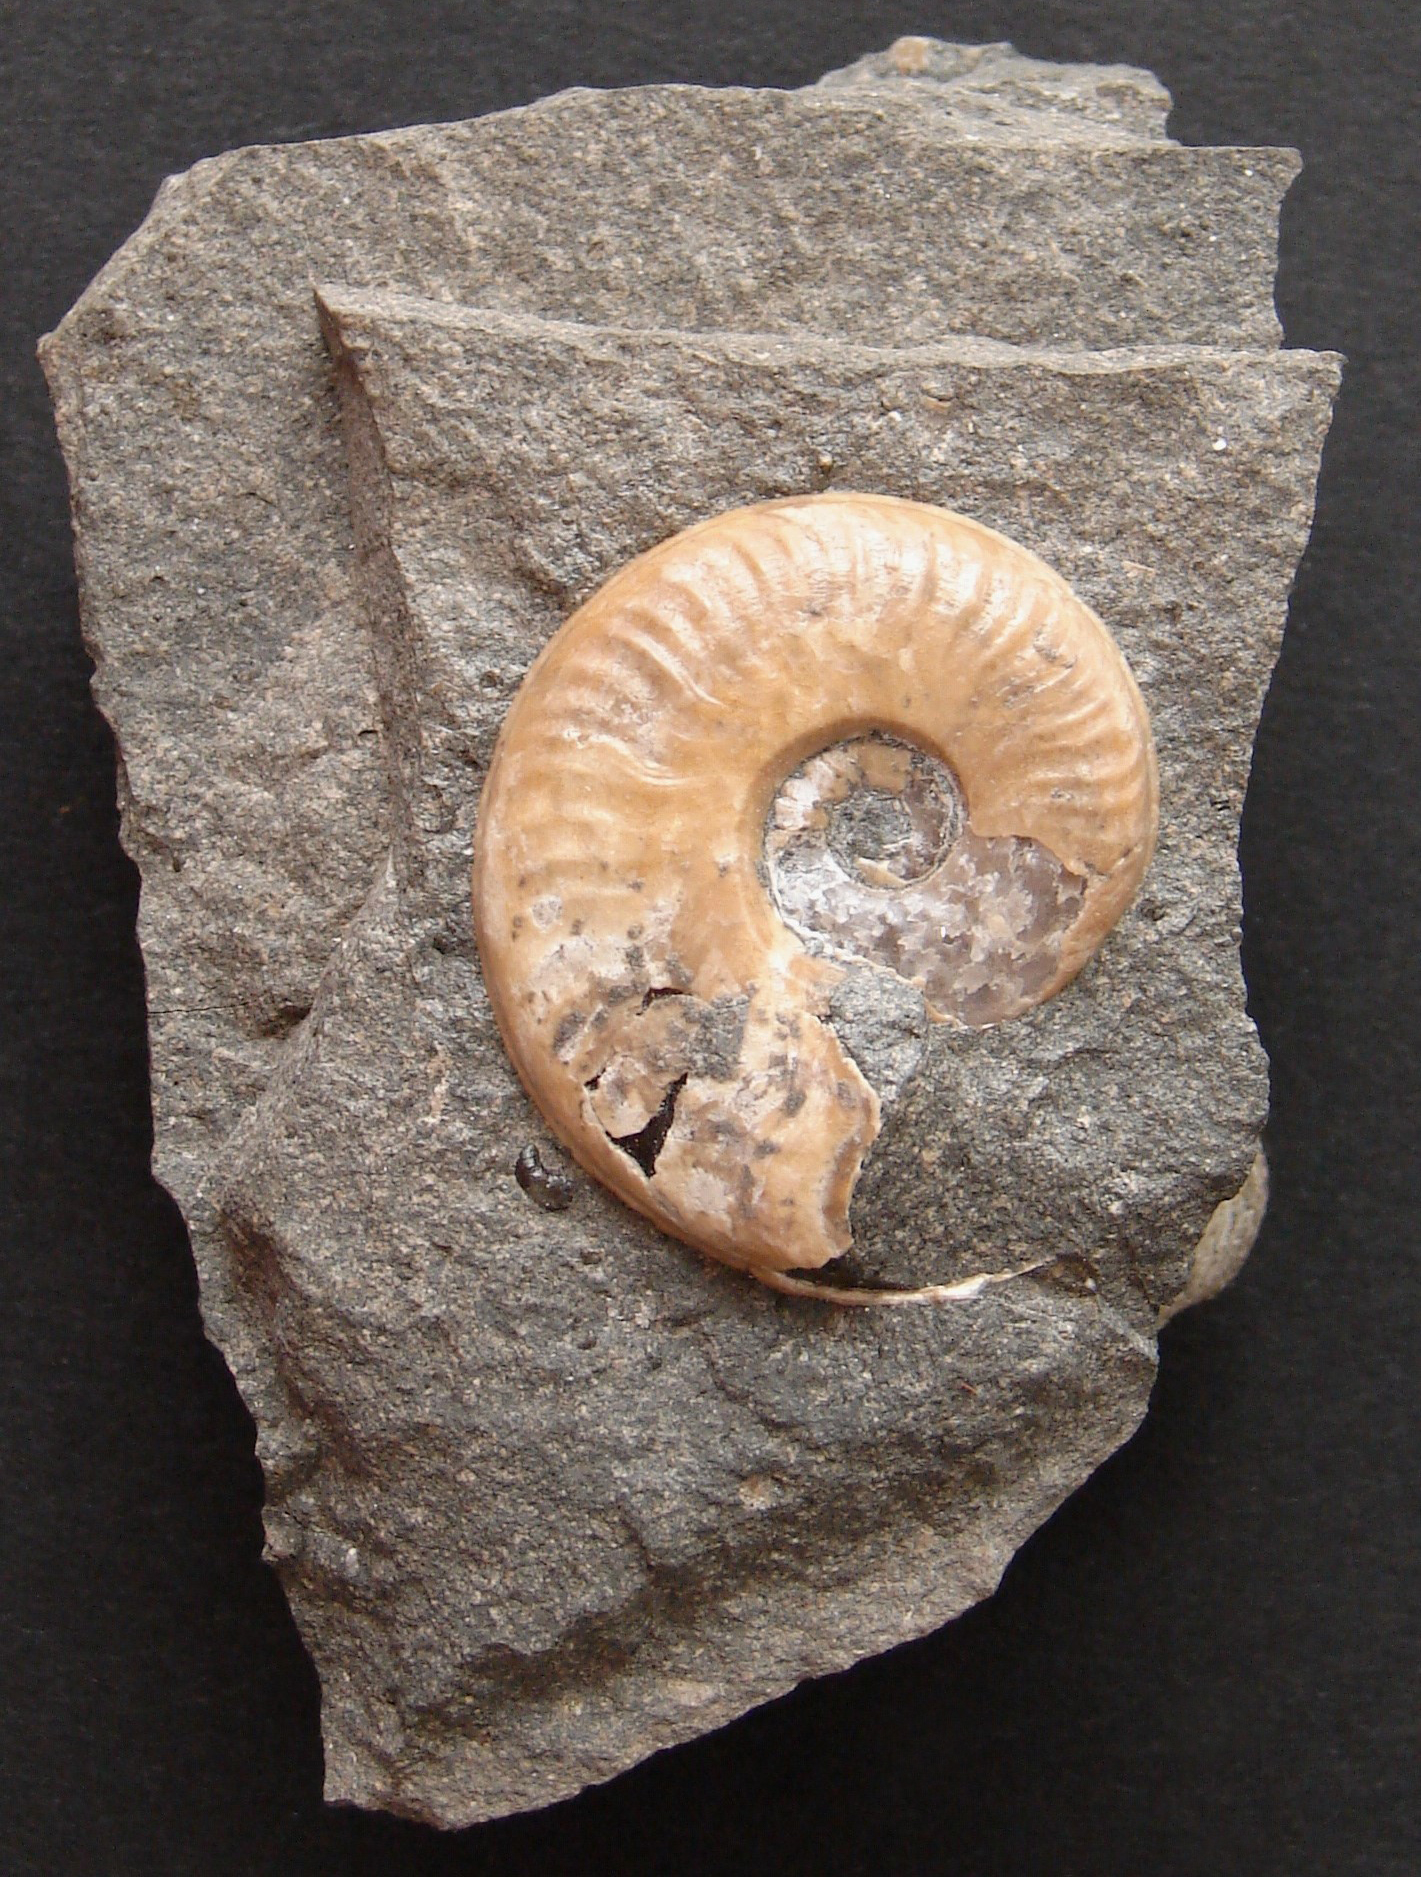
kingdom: Animalia
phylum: Mollusca
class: Cephalopoda
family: Hildoceratidae
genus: Eleganticeras
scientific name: Eleganticeras exaratum
